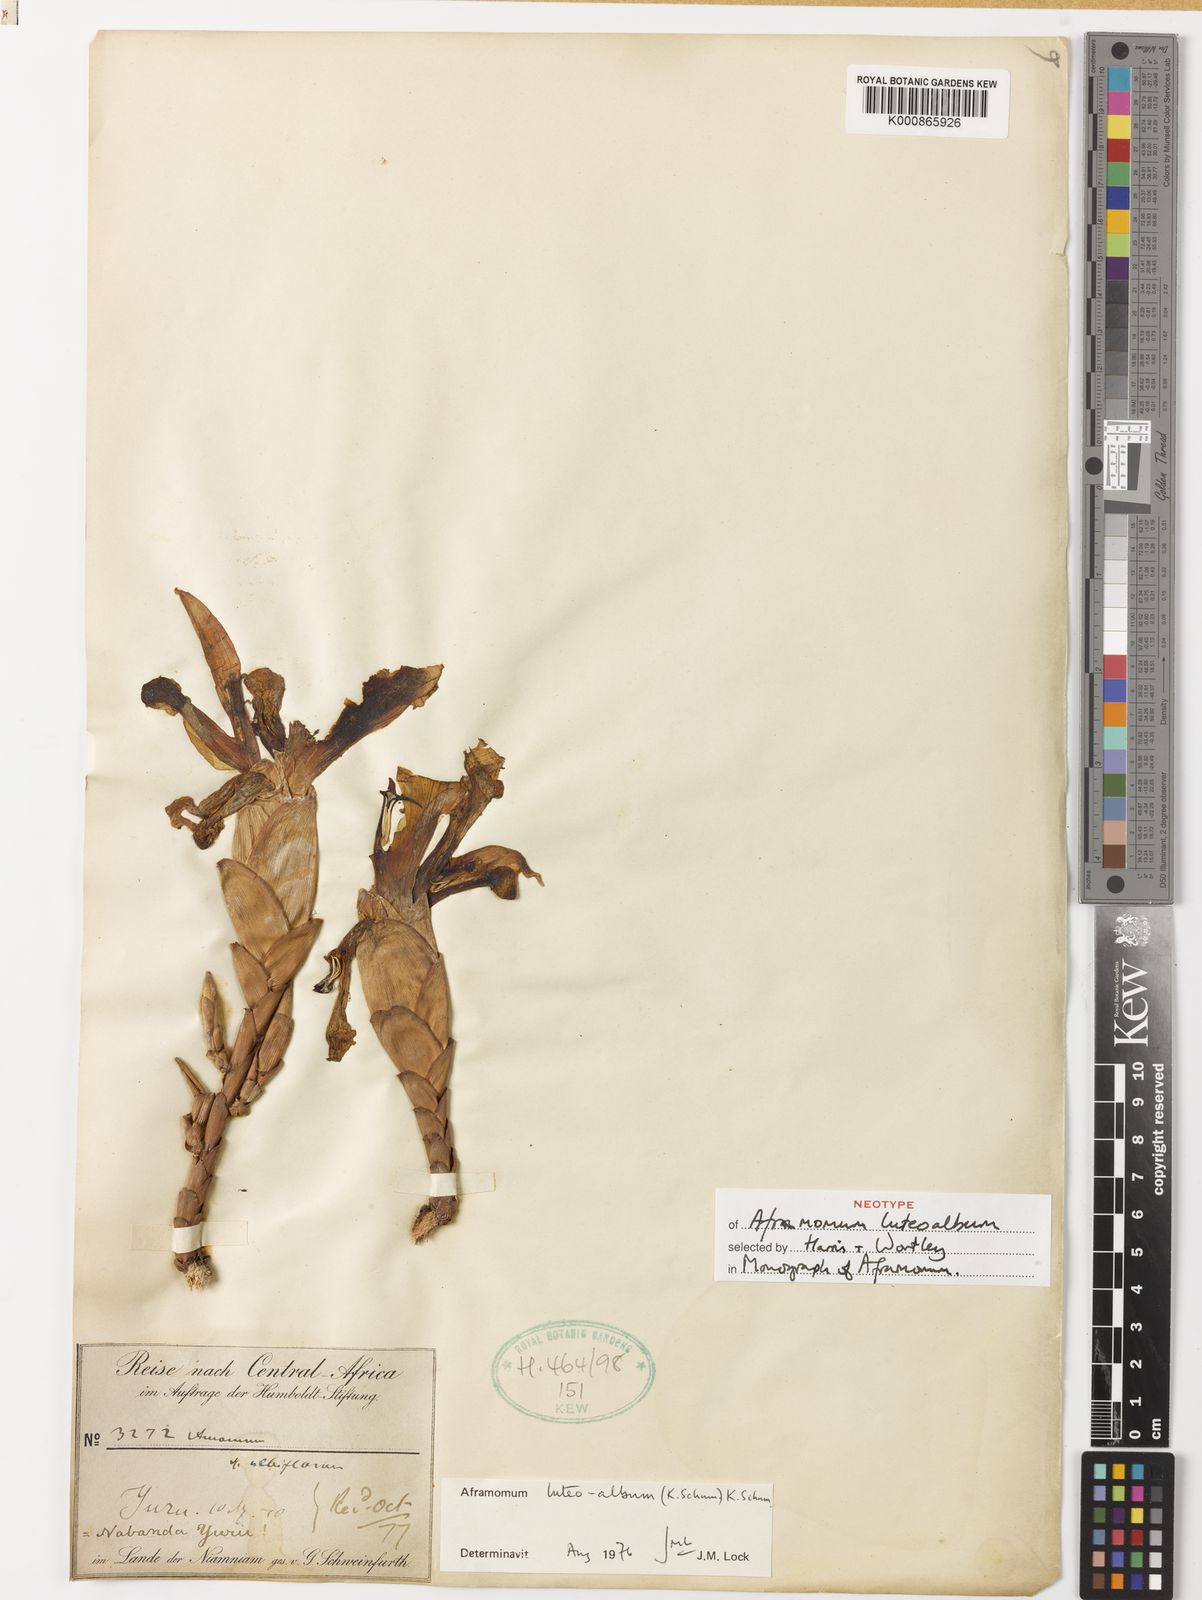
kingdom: Plantae
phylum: Tracheophyta
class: Liliopsida
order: Zingiberales
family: Zingiberaceae
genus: Aframomum
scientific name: Aframomum luteoalbum
